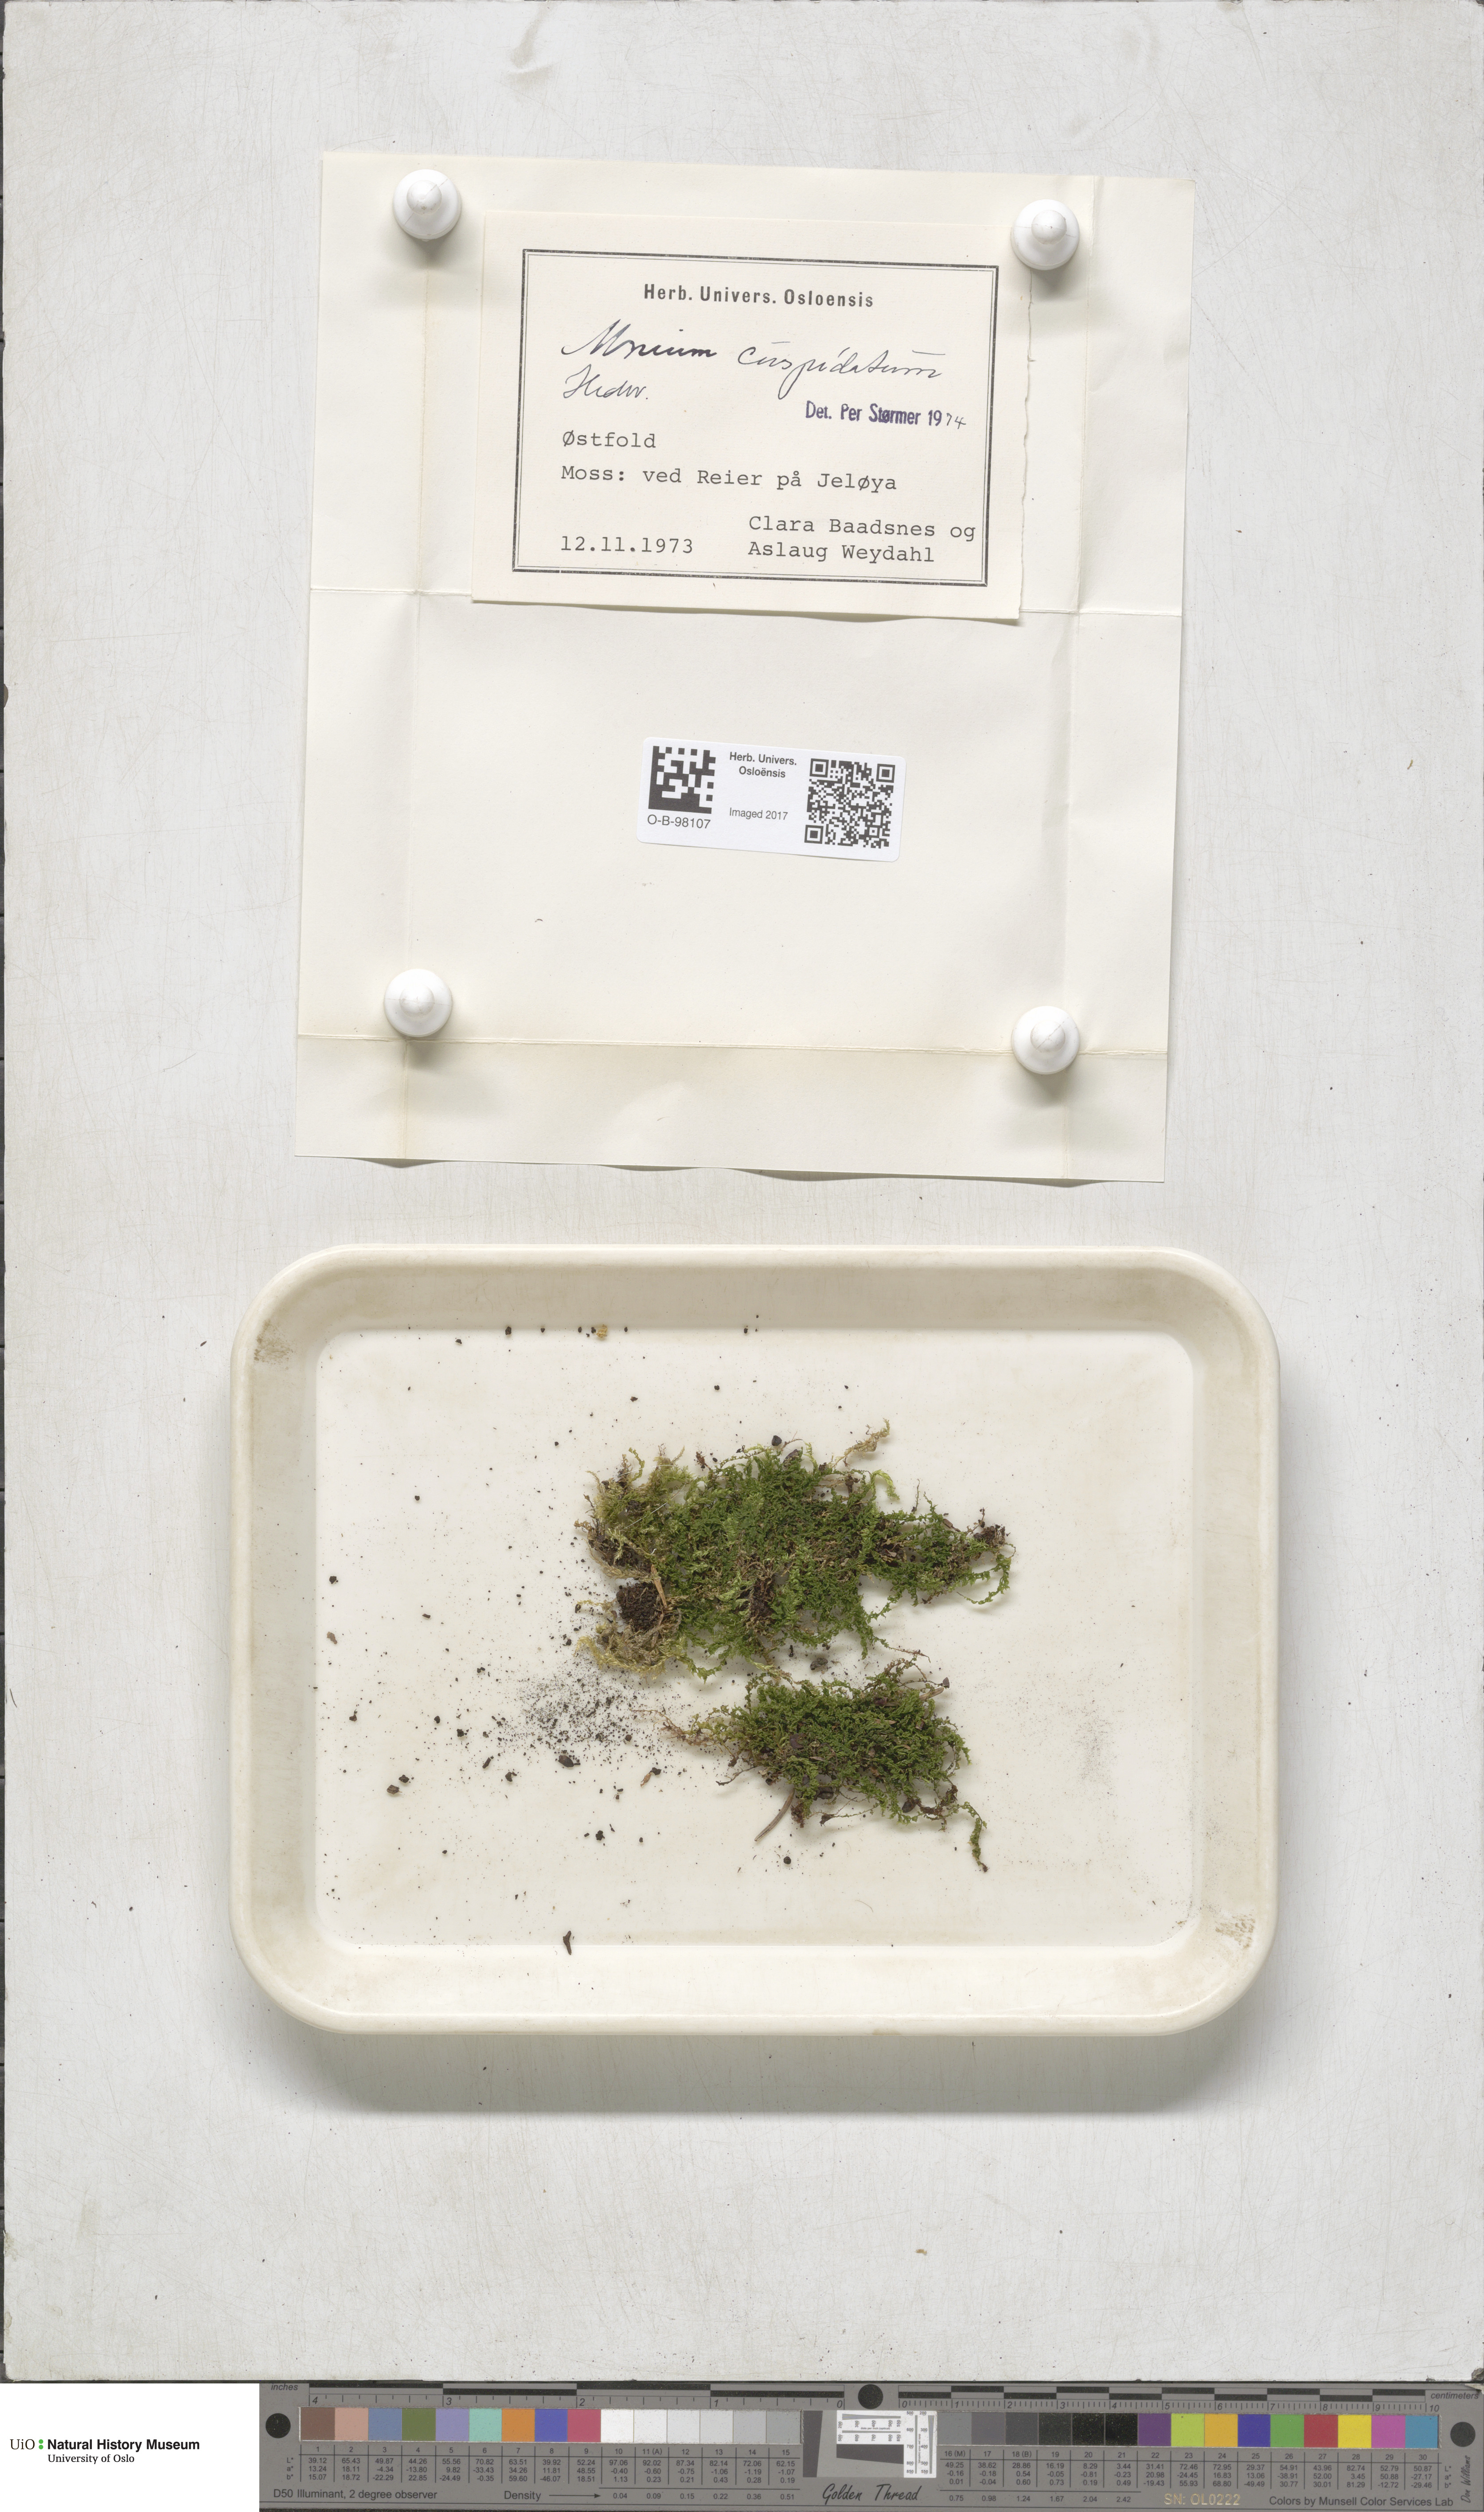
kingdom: Plantae
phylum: Bryophyta
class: Bryopsida
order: Bryales
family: Mniaceae
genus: Plagiomnium
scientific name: Plagiomnium cuspidatum
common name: Woodsy leafy moss
